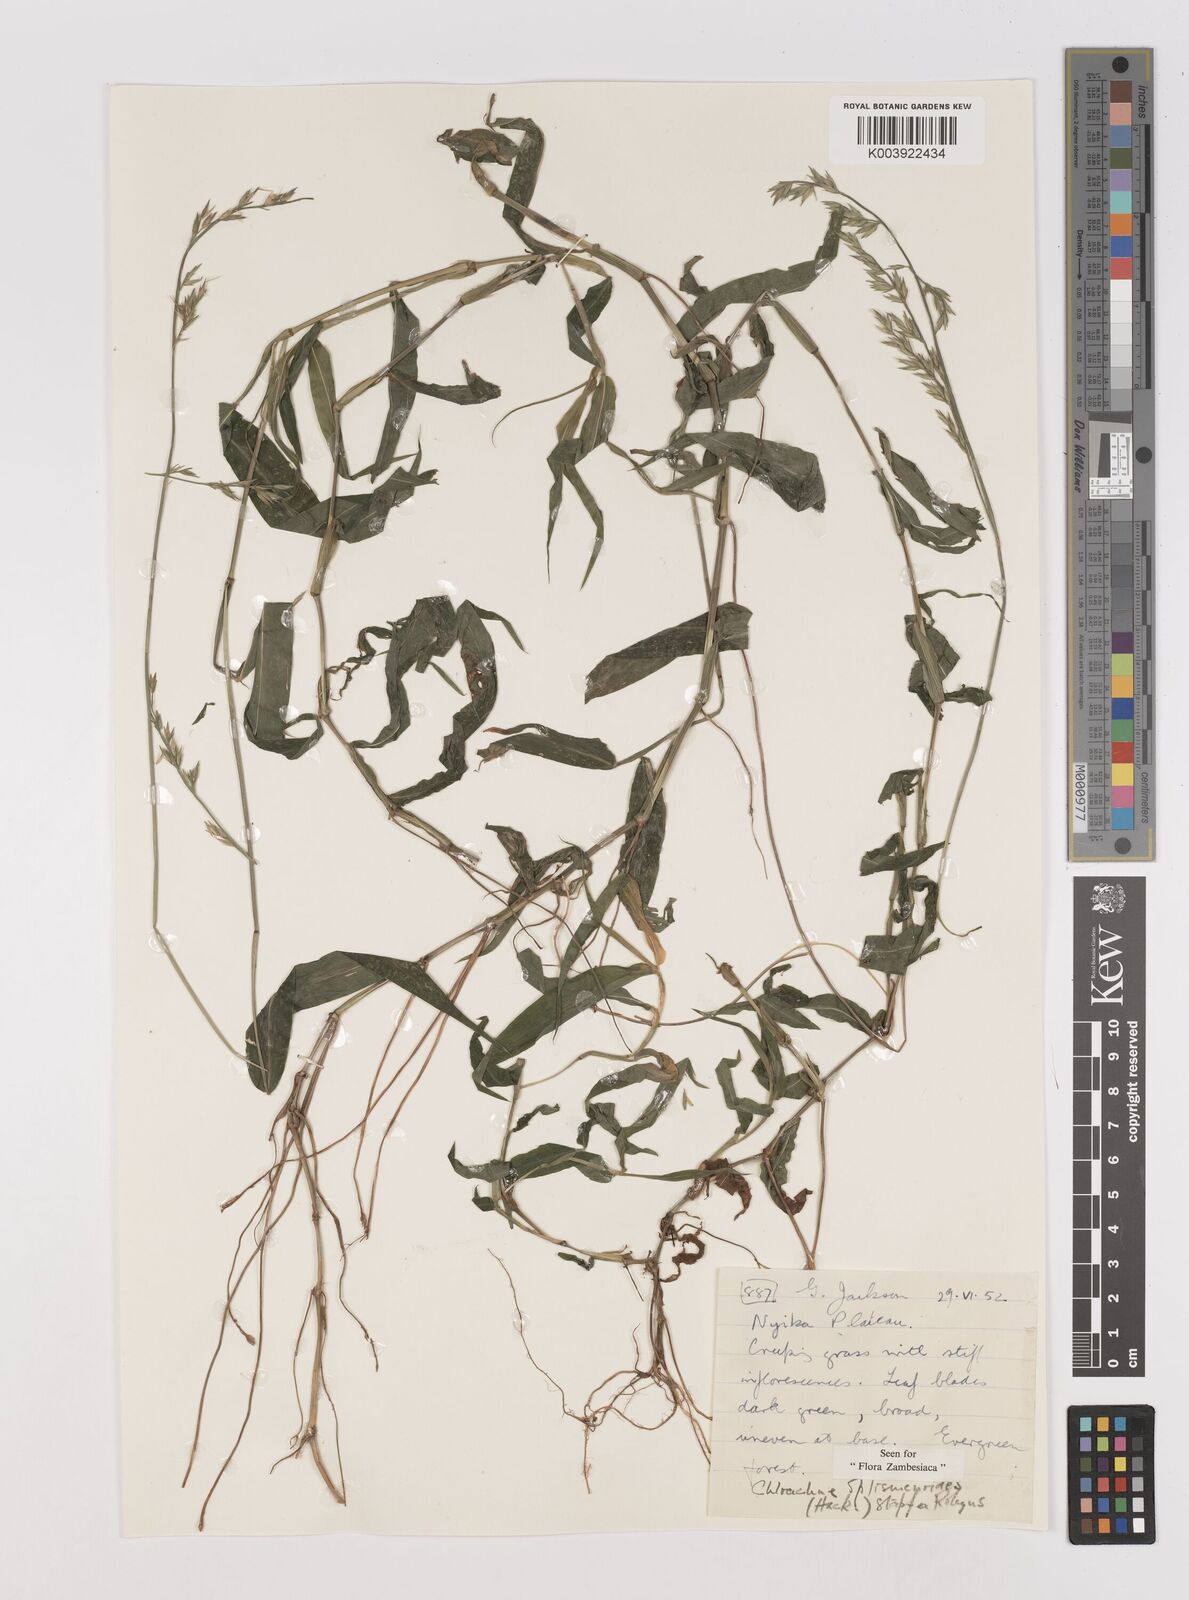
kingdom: Plantae
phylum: Tracheophyta
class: Liliopsida
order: Poales
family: Poaceae
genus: Poecilostachys
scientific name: Poecilostachys oplismenoides
